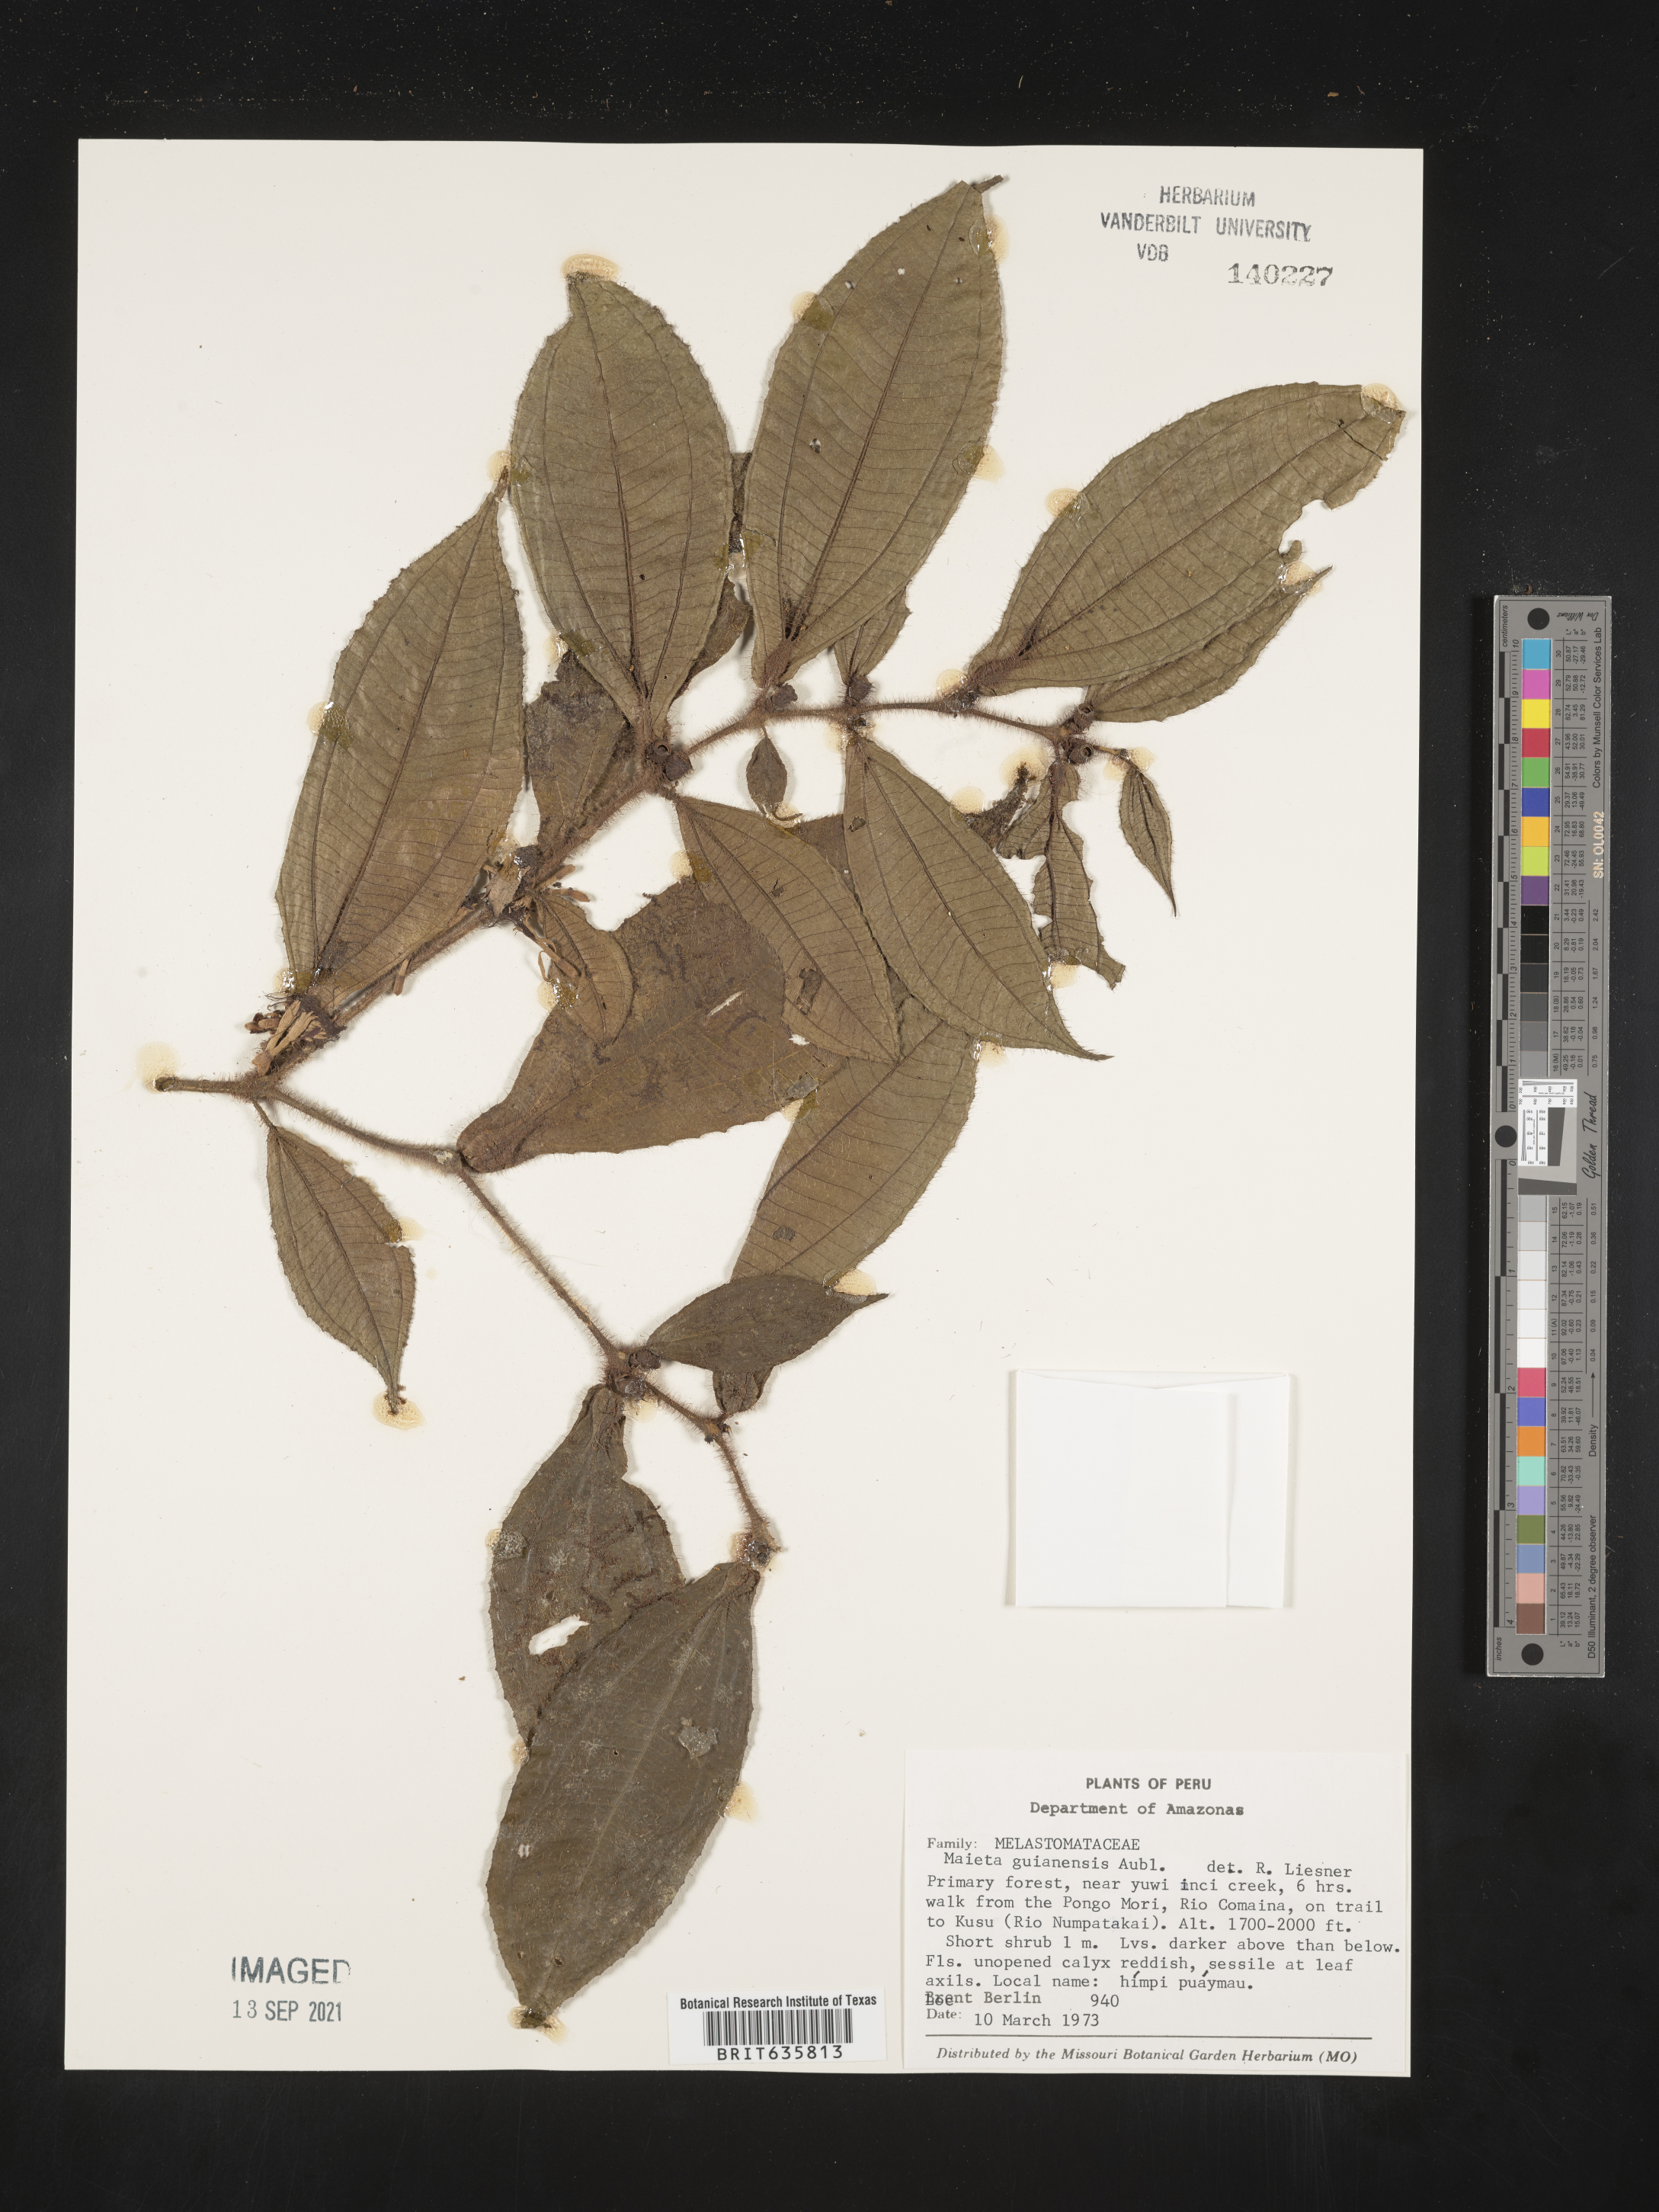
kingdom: Plantae
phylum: Tracheophyta
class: Magnoliopsida
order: Myrtales
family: Melastomataceae
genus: Miconia
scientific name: Miconia
